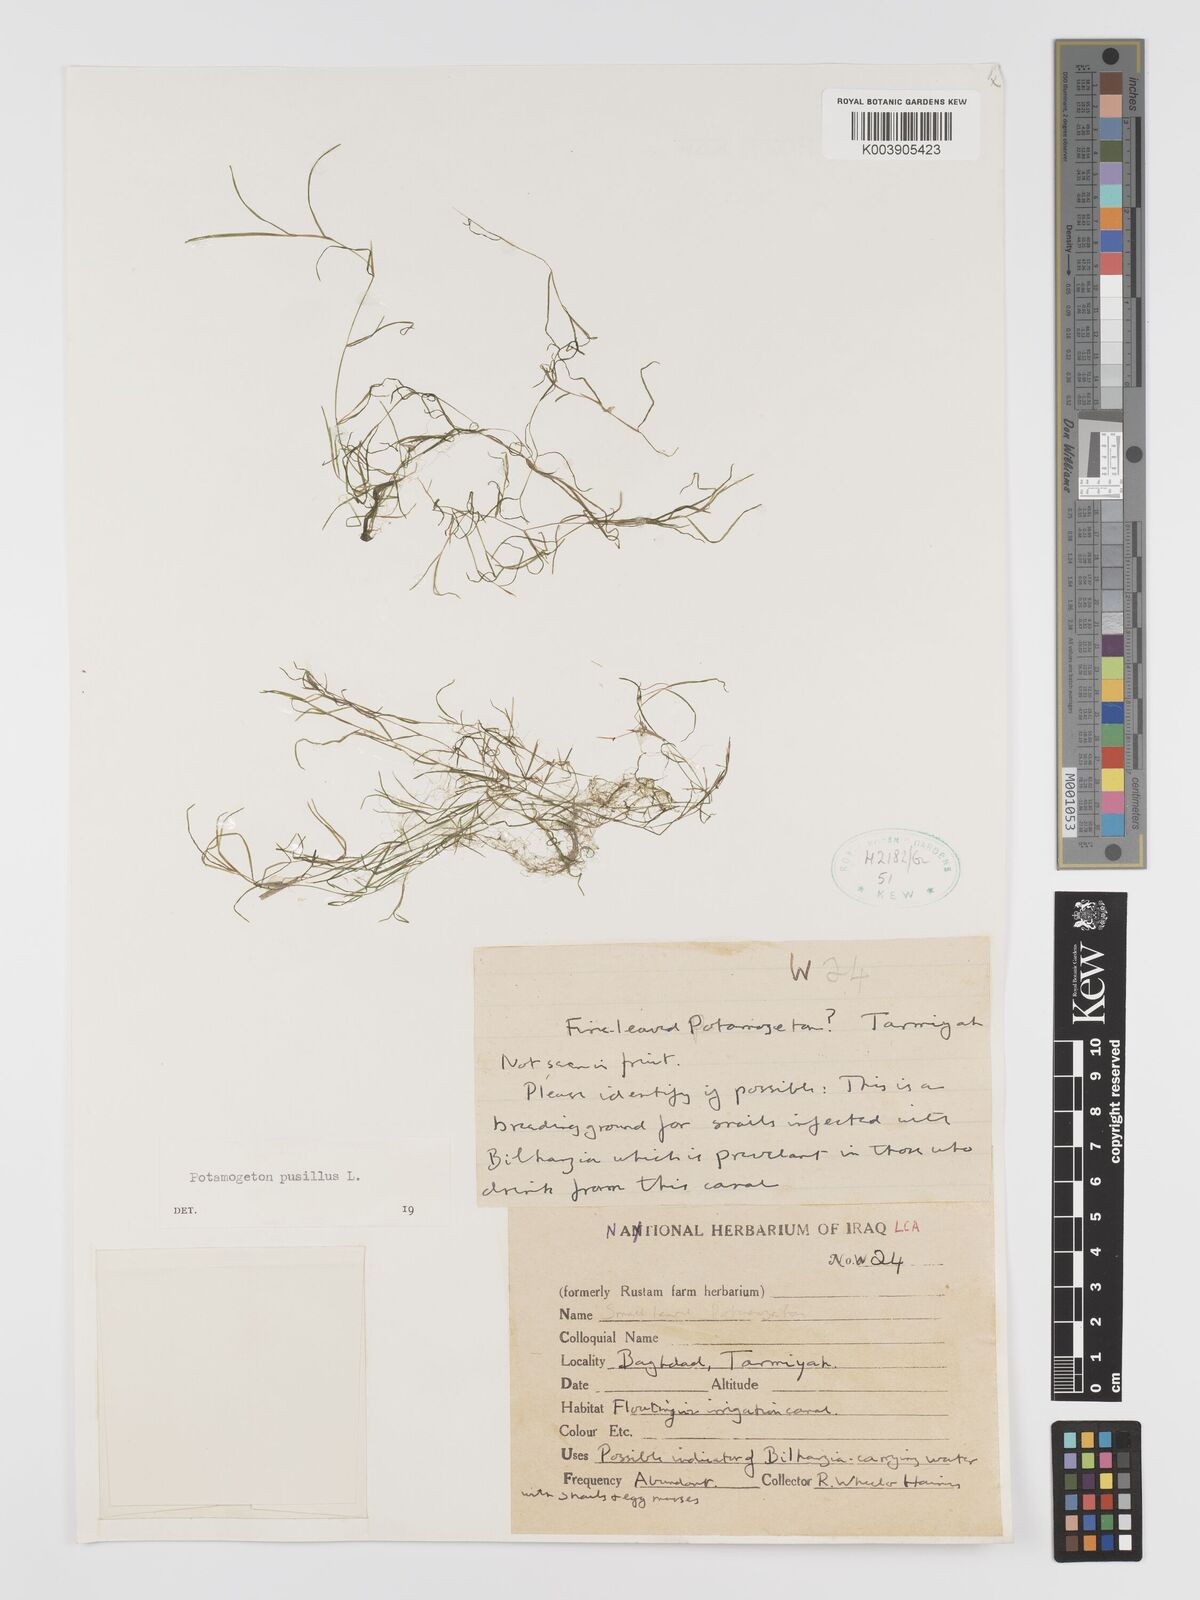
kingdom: Plantae
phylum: Tracheophyta
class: Liliopsida
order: Alismatales
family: Potamogetonaceae
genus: Potamogeton
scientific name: Potamogeton pusillus
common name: Lesser pondweed
